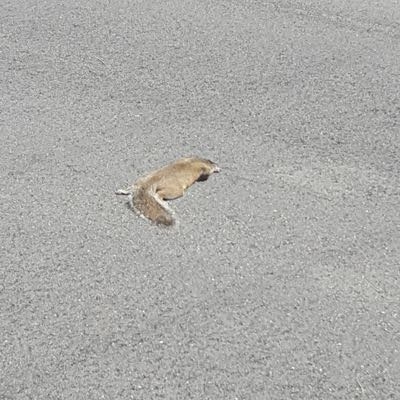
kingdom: Animalia
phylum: Chordata
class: Mammalia
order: Rodentia
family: Sciuridae
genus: Sciurus
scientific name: Sciurus carolinensis
